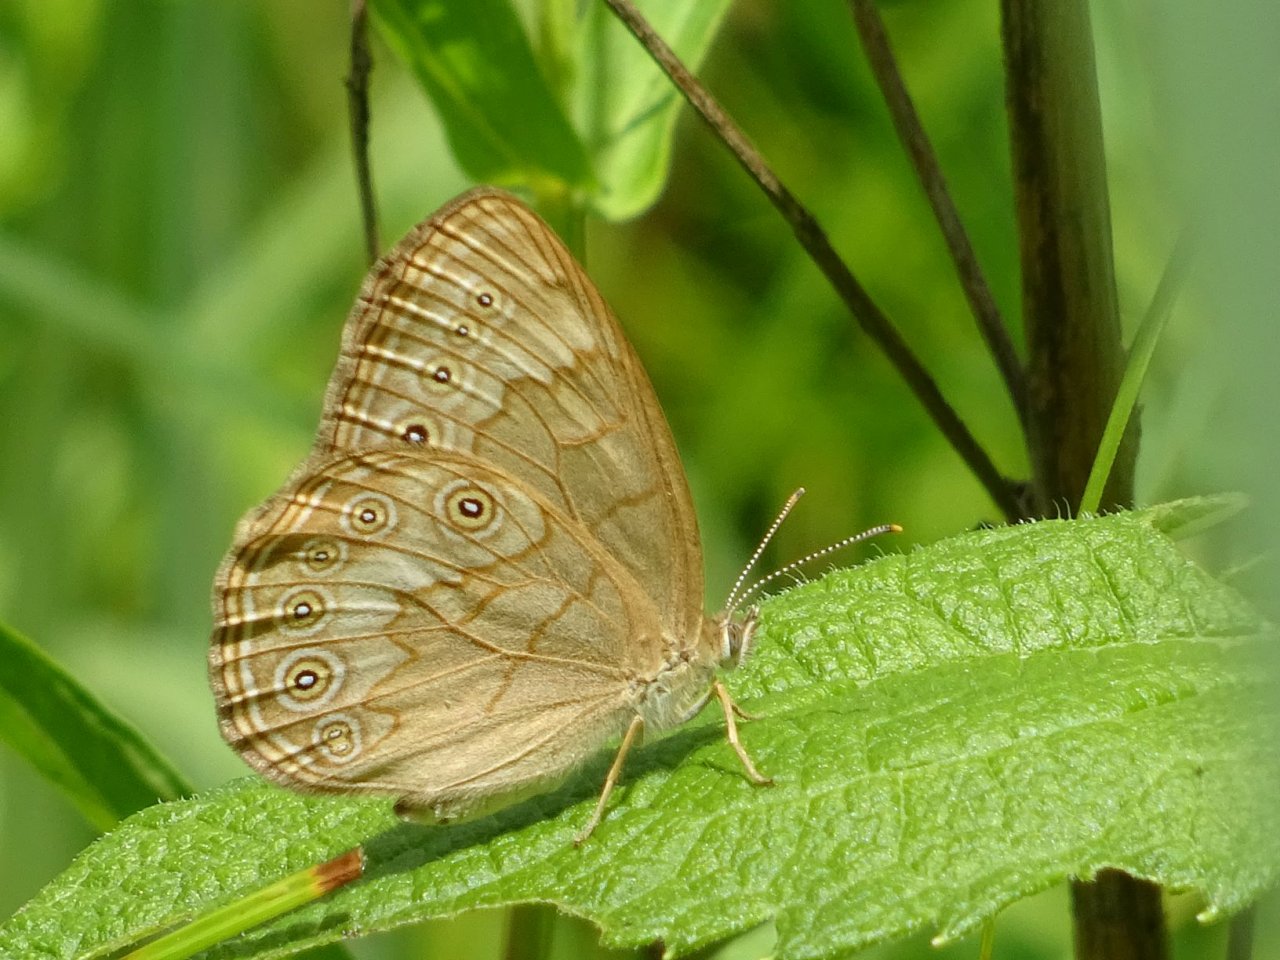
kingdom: Animalia
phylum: Arthropoda
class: Insecta
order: Lepidoptera
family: Nymphalidae
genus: Lethe
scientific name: Lethe eurydice
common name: Eyed Brown
